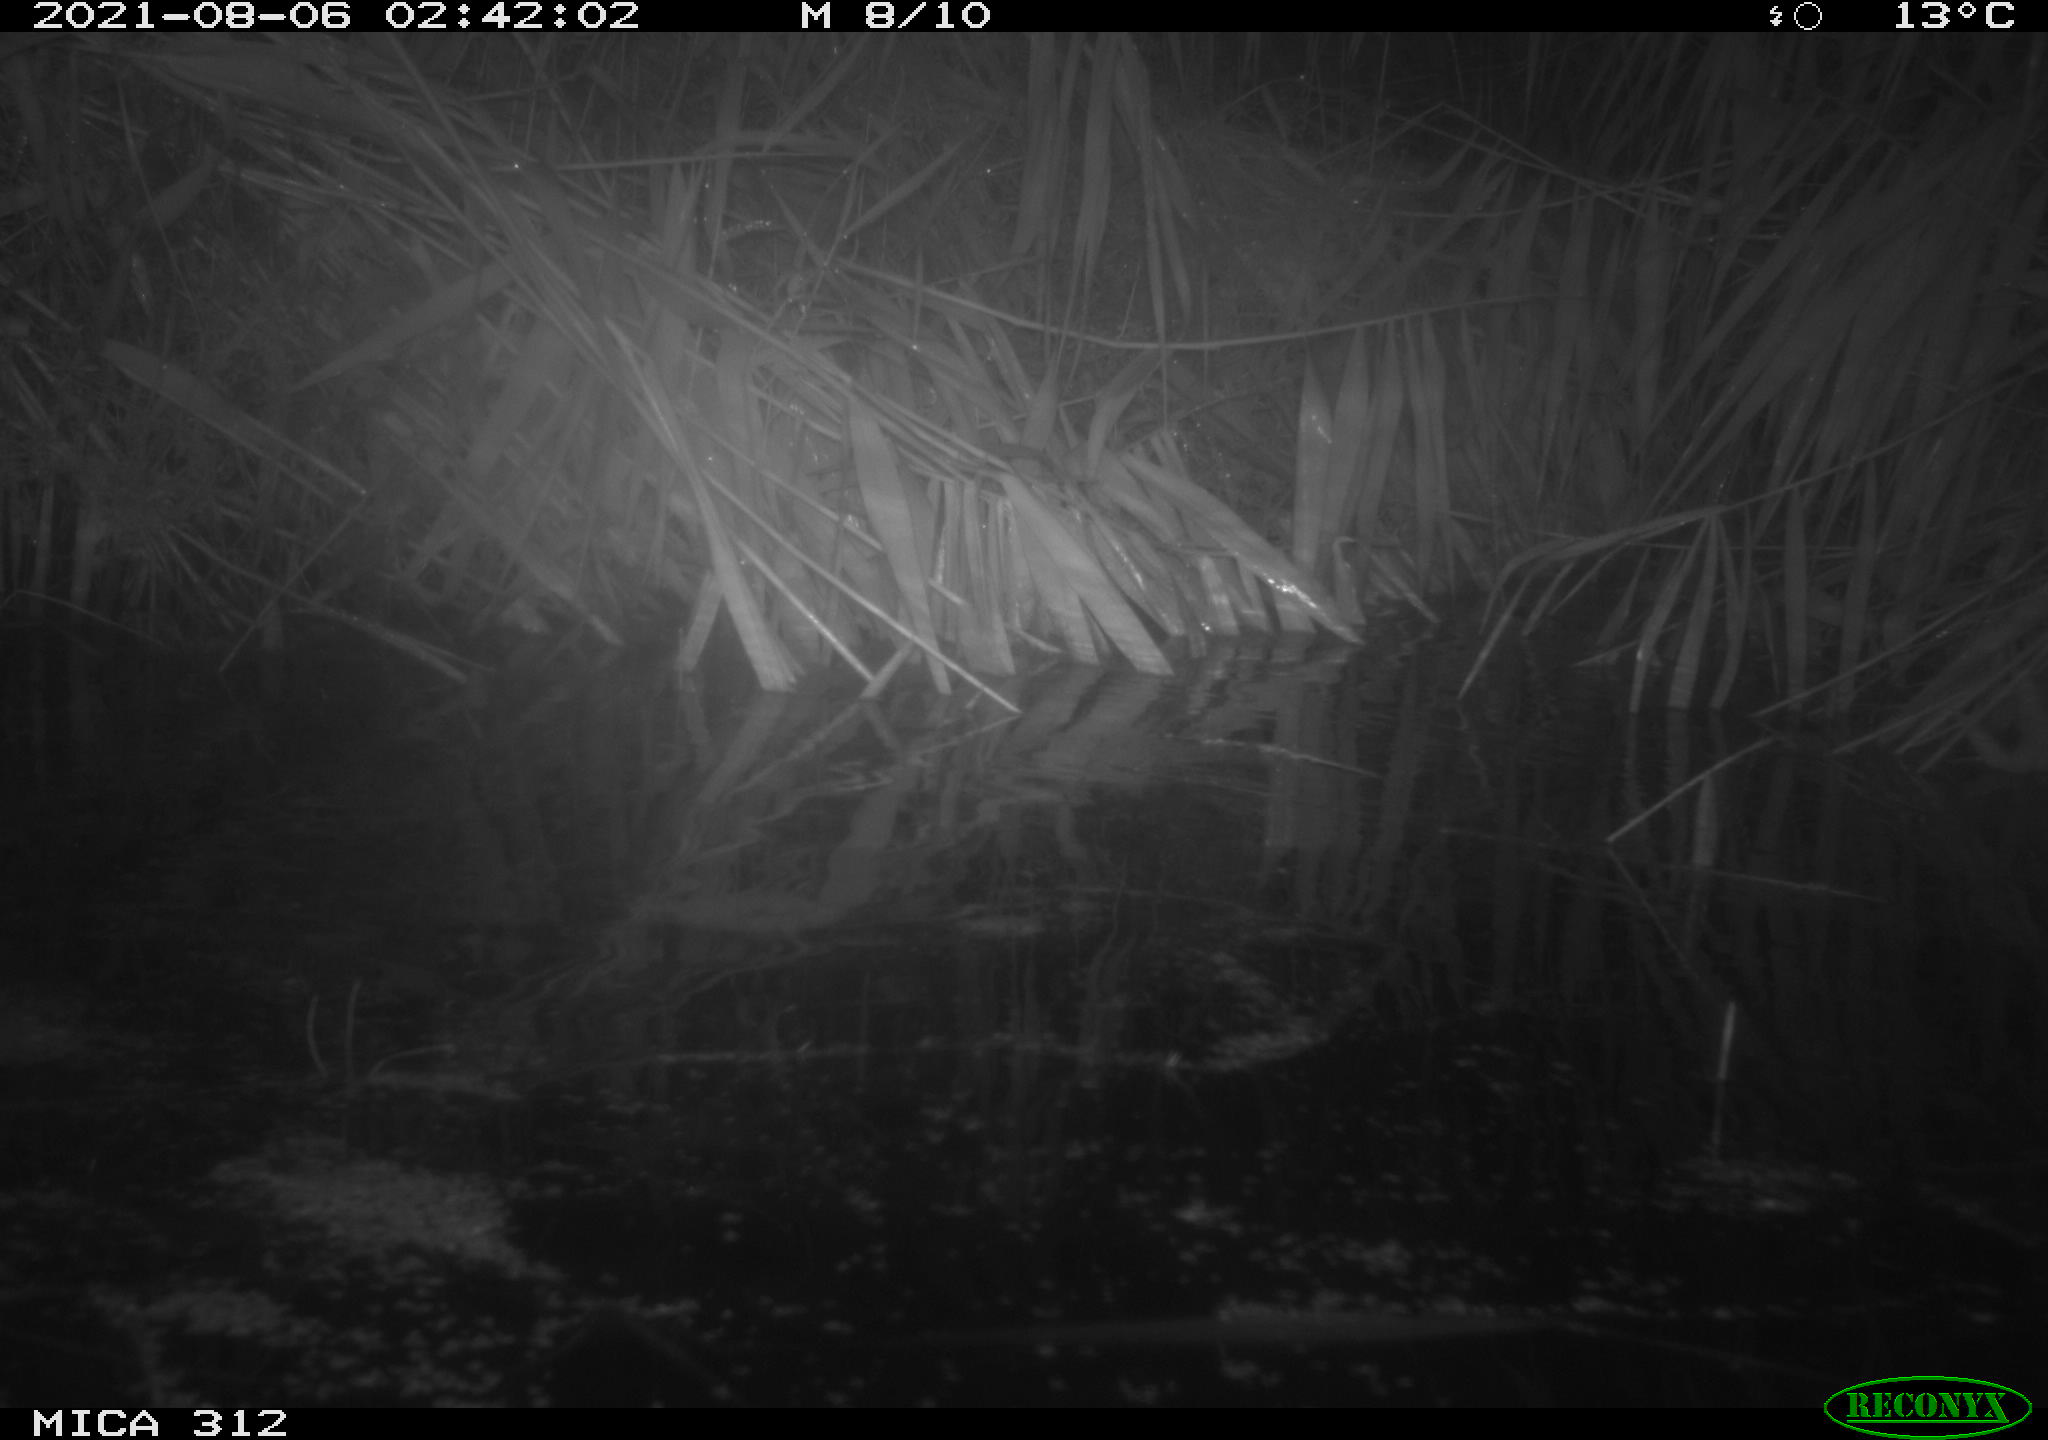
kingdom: Animalia
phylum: Chordata
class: Mammalia
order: Rodentia
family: Muridae
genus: Rattus
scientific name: Rattus norvegicus
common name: Brown rat
